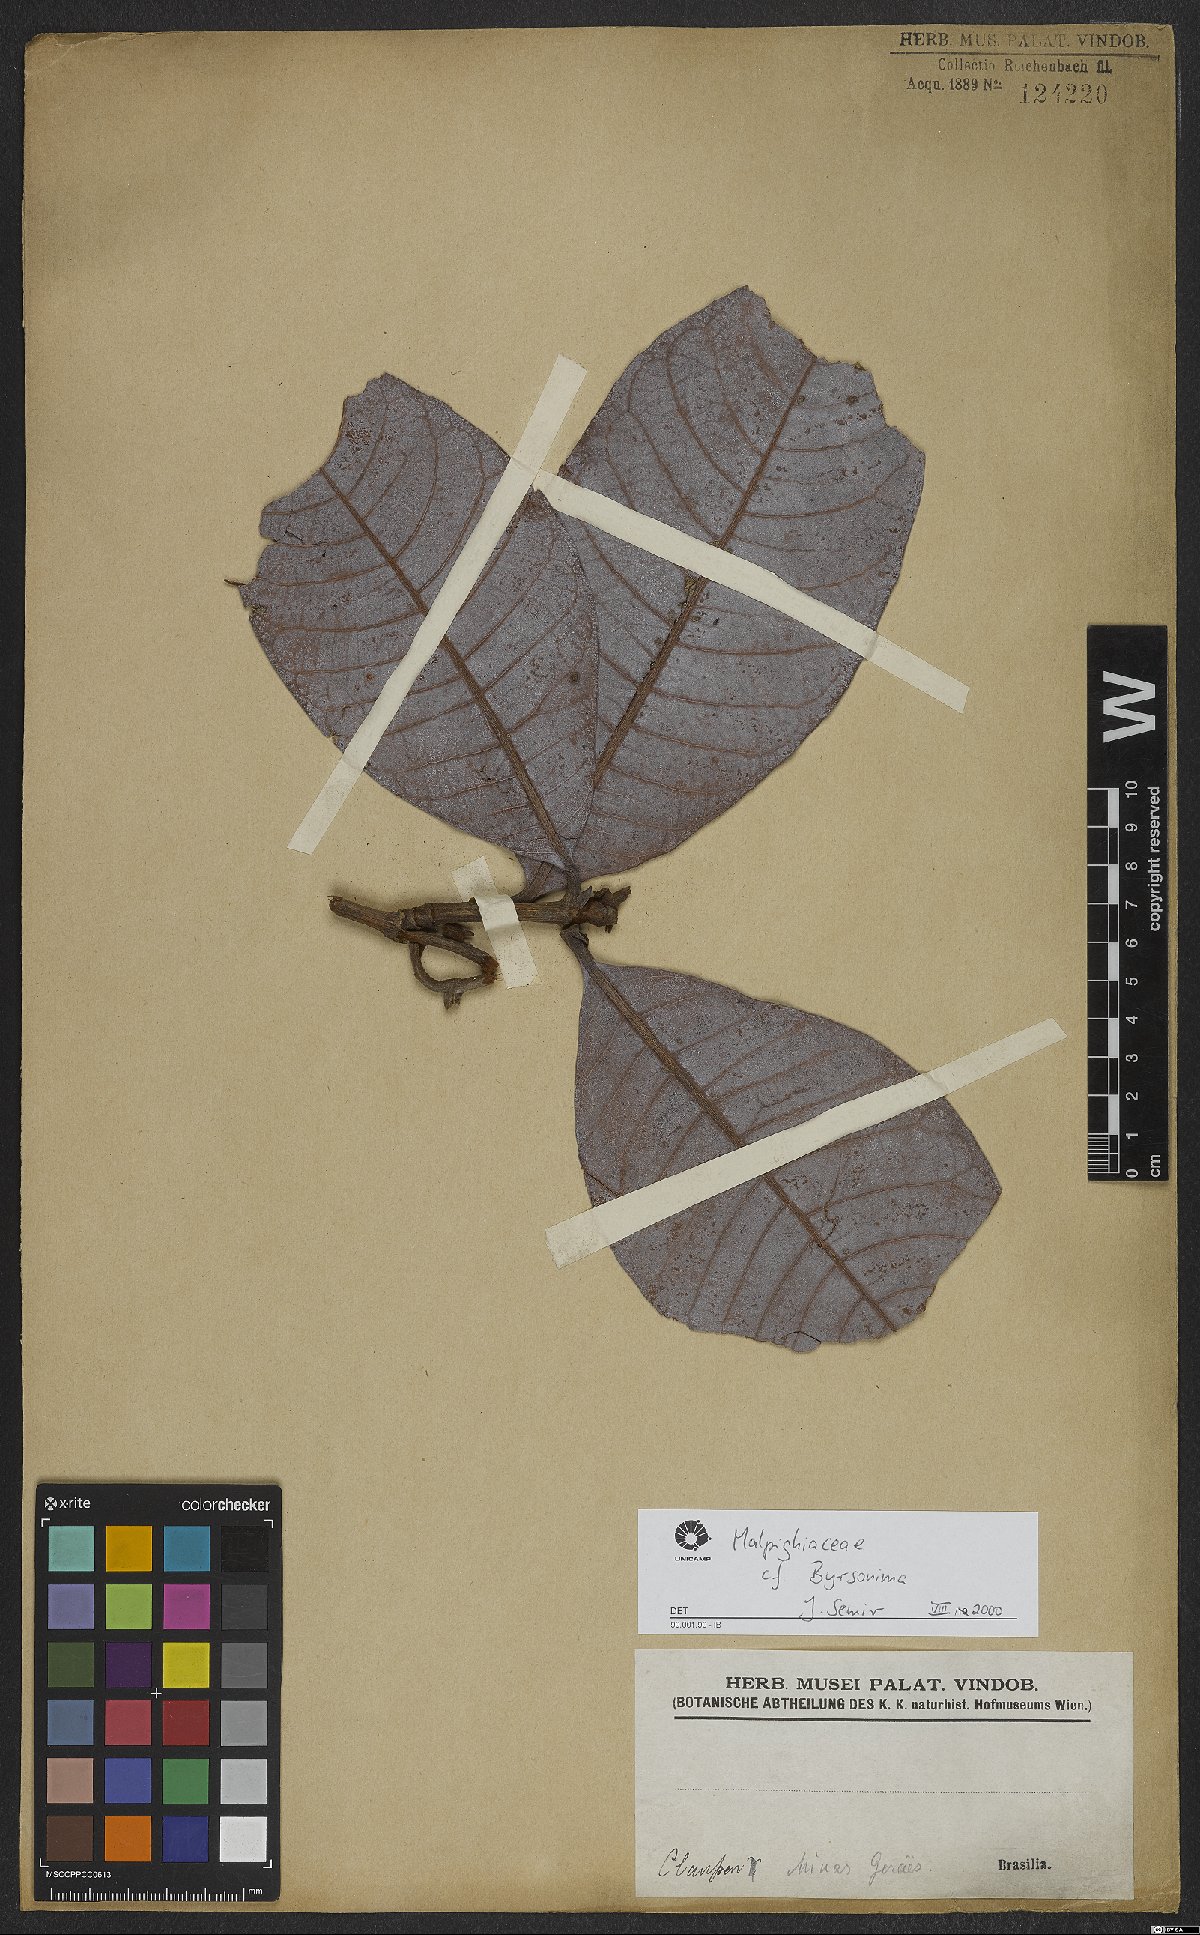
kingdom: Plantae
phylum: Tracheophyta
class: Magnoliopsida
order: Malpighiales
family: Malpighiaceae
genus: Byrsonima
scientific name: Byrsonima
